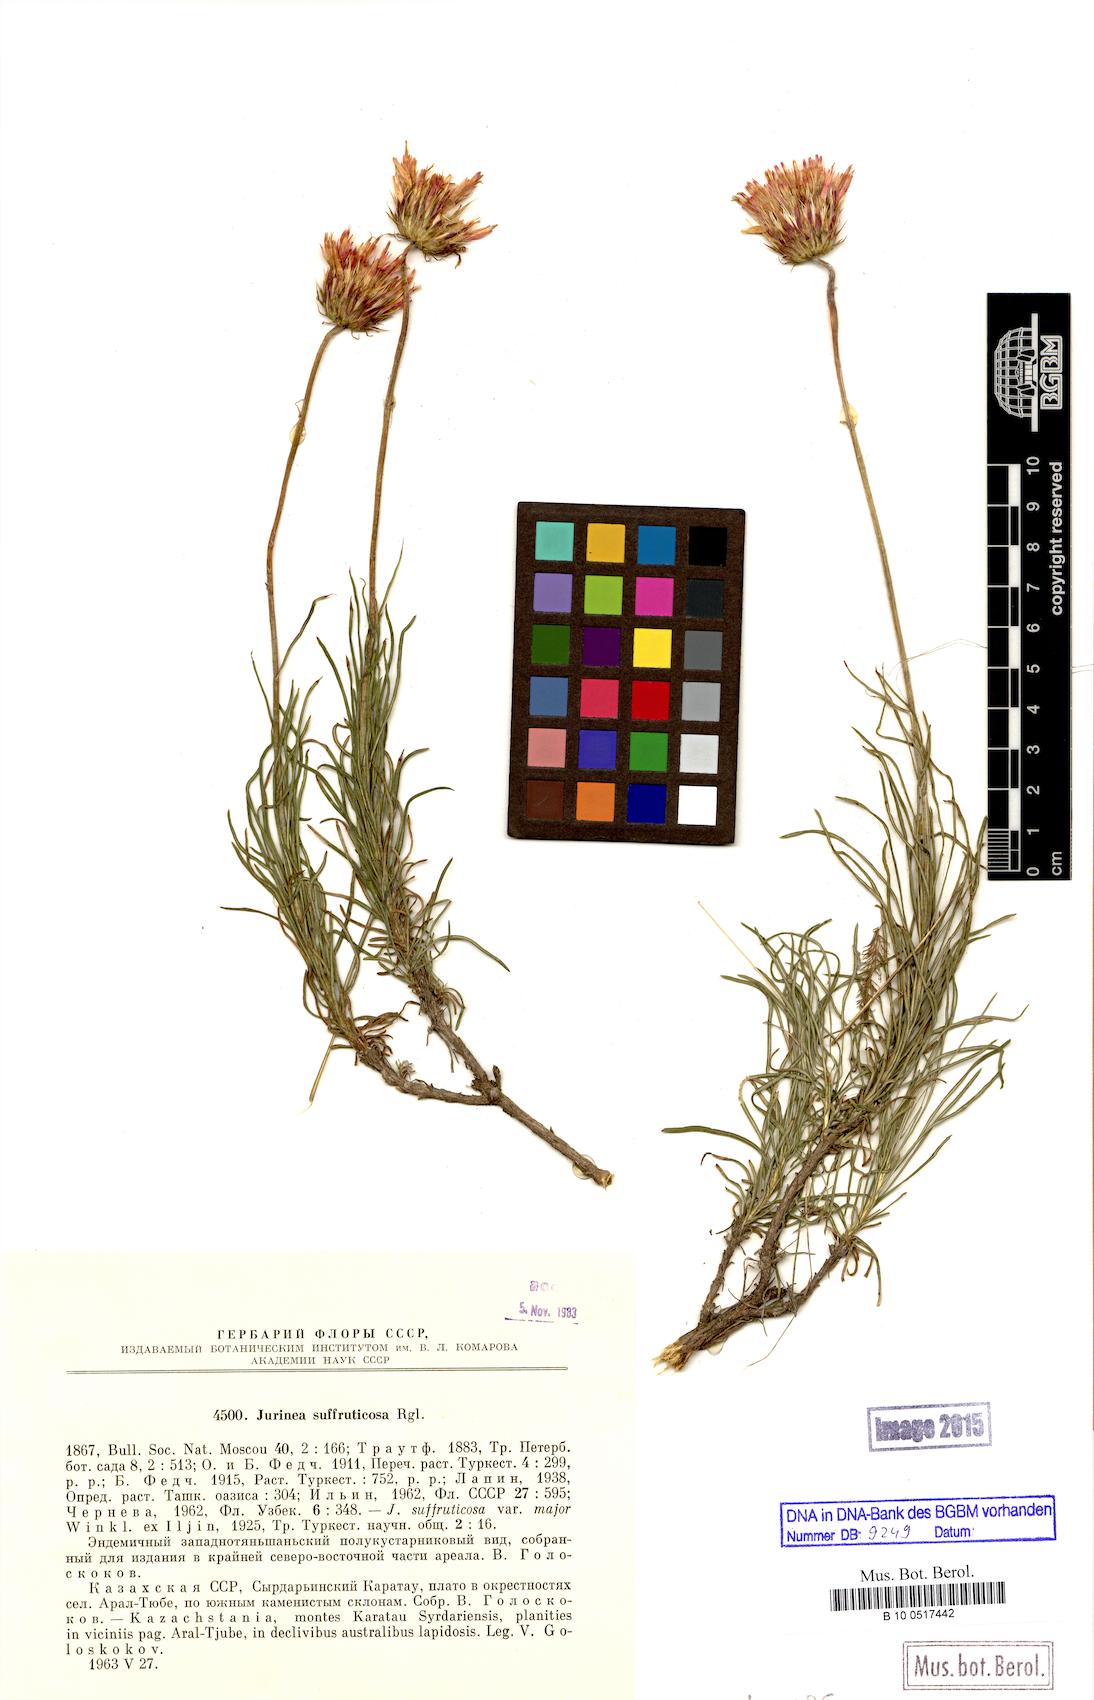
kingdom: Plantae
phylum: Tracheophyta
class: Magnoliopsida
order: Asterales
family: Asteraceae
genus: Jurinea
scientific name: Jurinea suffruticosa
